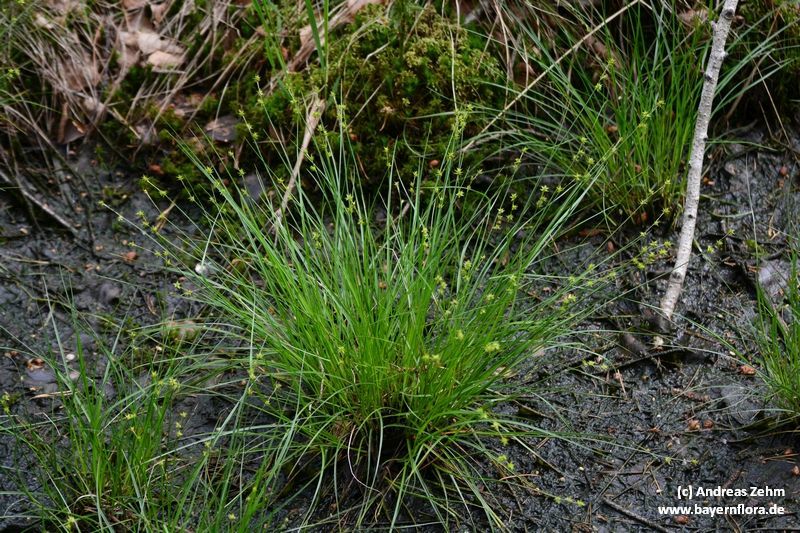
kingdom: Plantae
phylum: Tracheophyta
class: Liliopsida
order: Poales
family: Cyperaceae
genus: Carex
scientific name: Carex echinata
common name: Star sedge
